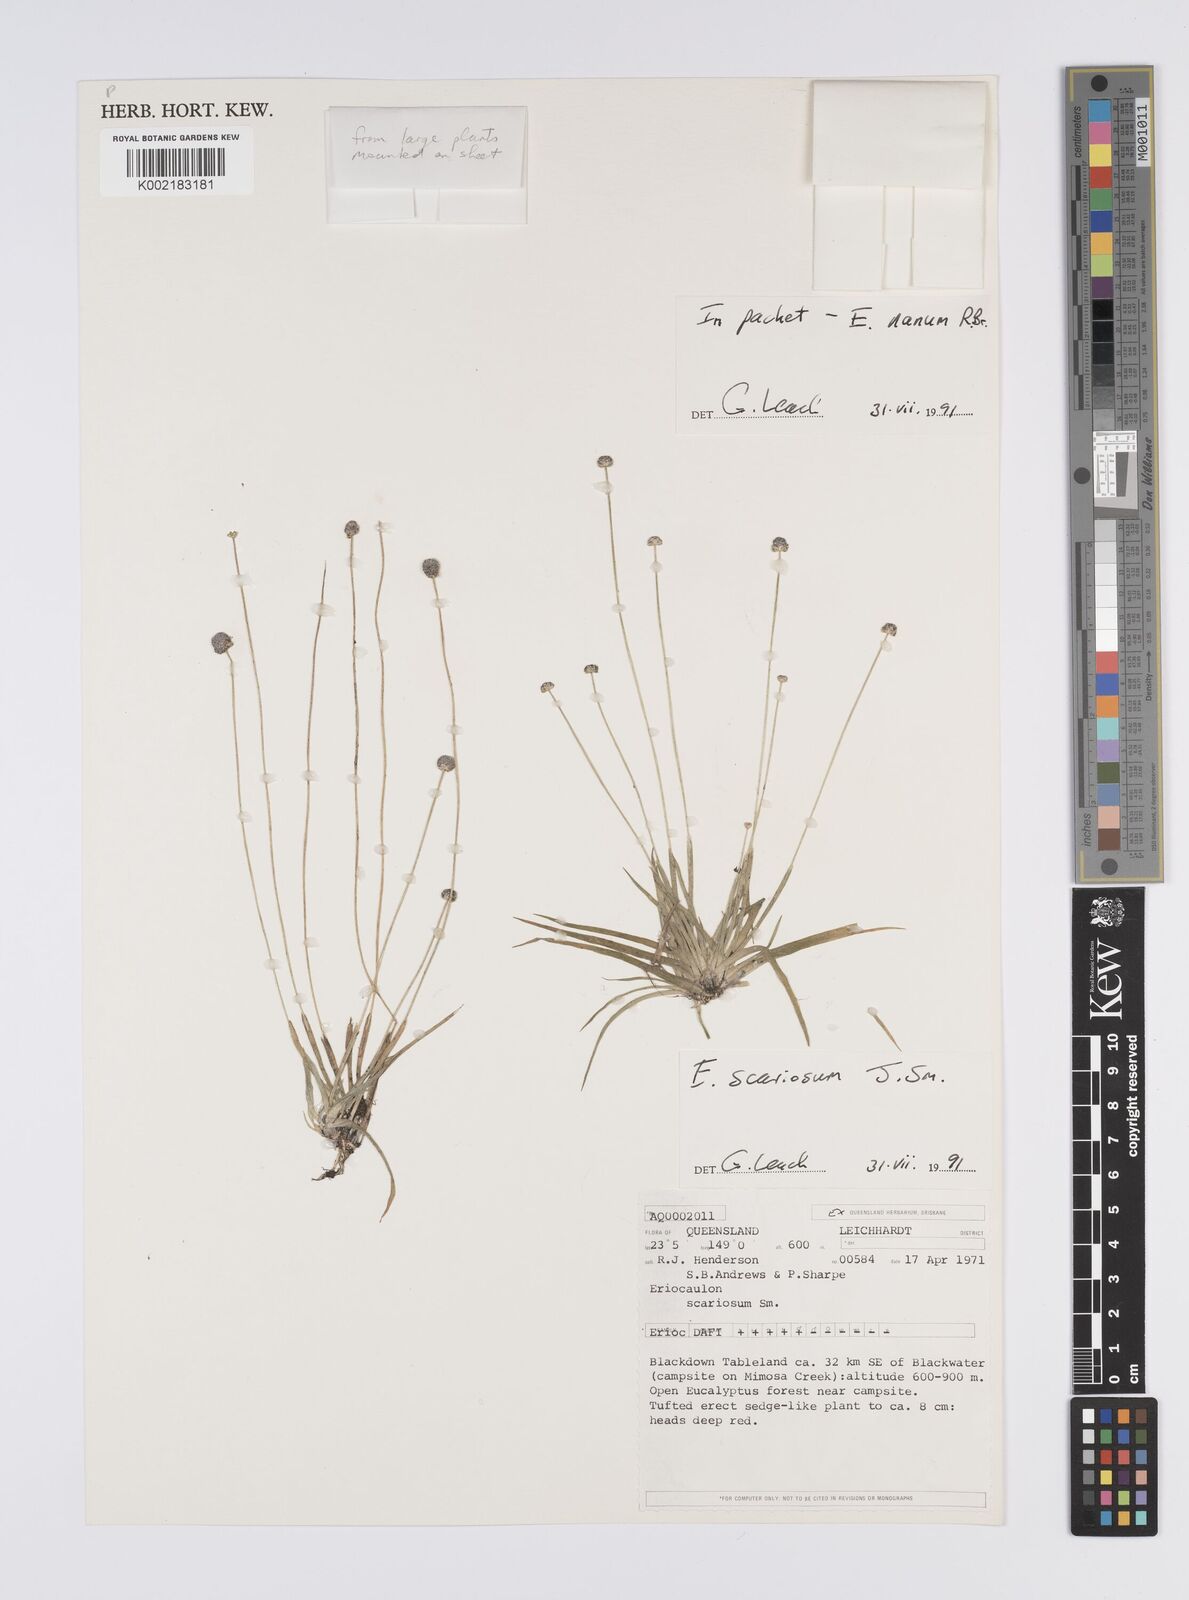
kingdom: Plantae
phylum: Tracheophyta
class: Liliopsida
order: Poales
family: Eriocaulaceae
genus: Eriocaulon
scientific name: Eriocaulon nanum
